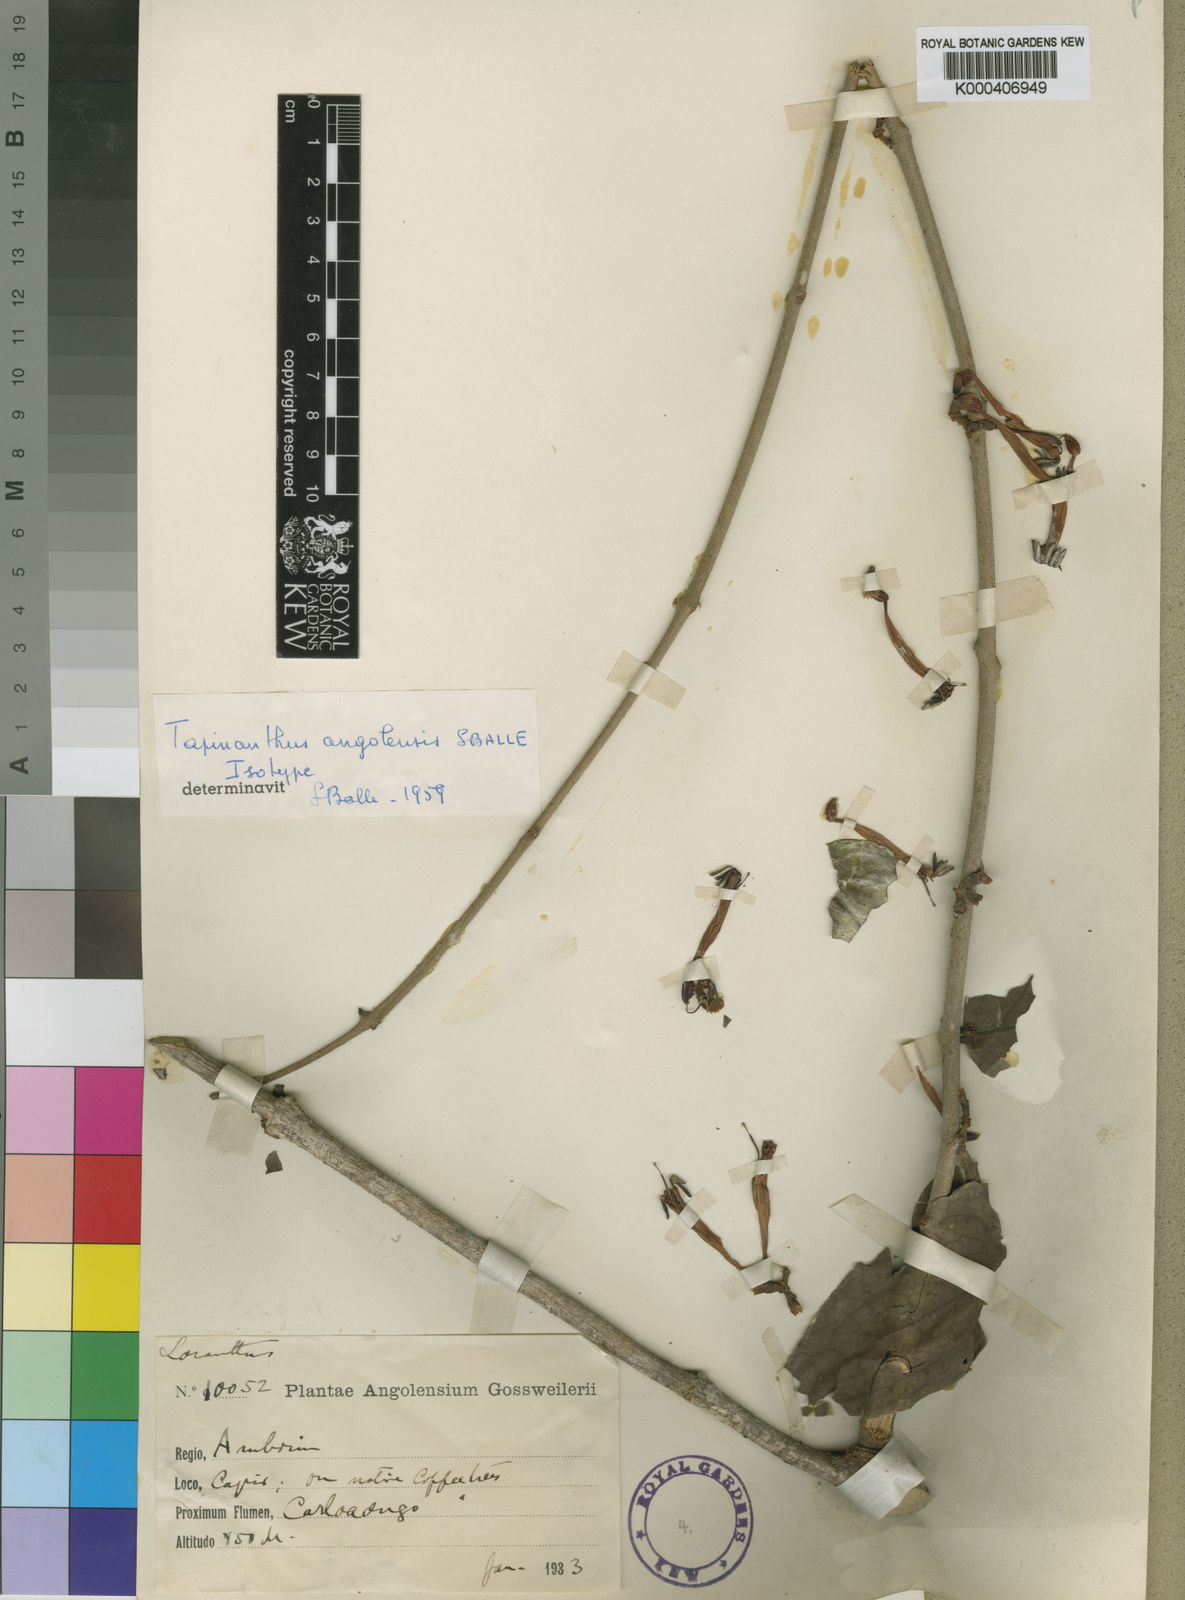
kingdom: Plantae
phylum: Tracheophyta
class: Magnoliopsida
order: Santalales
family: Loranthaceae
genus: Tapinanthus
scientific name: Tapinanthus constrictiflorus
